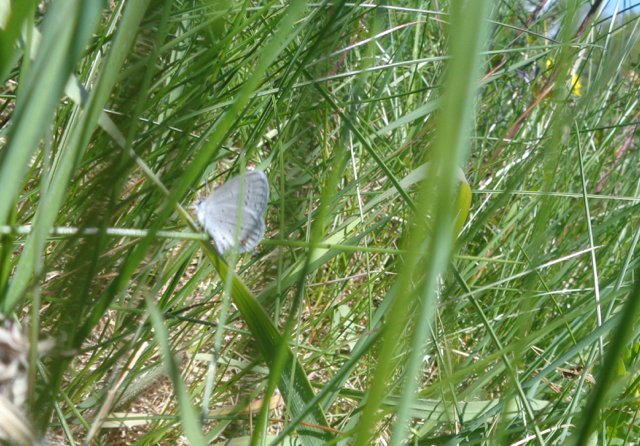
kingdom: Animalia
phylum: Arthropoda
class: Insecta
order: Lepidoptera
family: Lycaenidae
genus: Elkalyce
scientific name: Elkalyce comyntas
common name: Eastern Tailed-Blue
